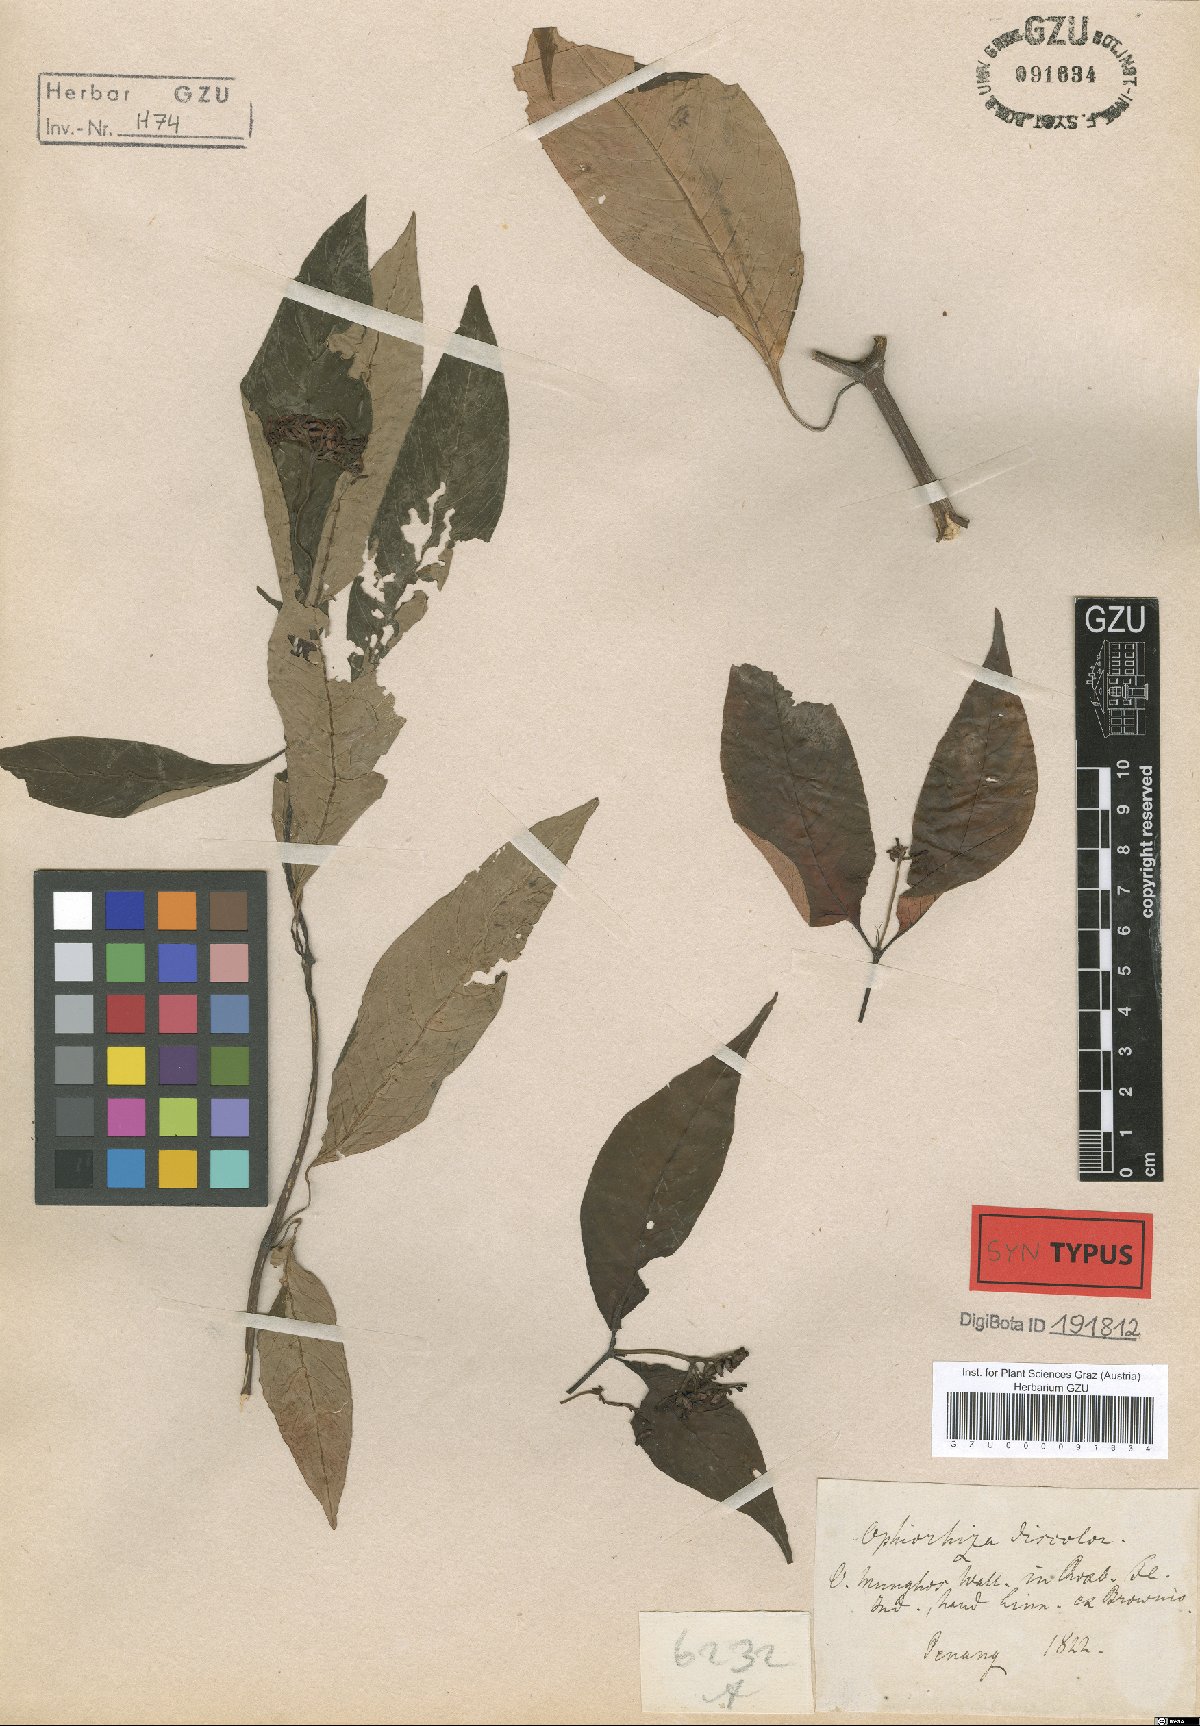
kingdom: Plantae
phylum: Tracheophyta
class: Magnoliopsida
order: Gentianales
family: Rubiaceae
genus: Ophiorrhiza
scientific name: Ophiorrhiza discolor
